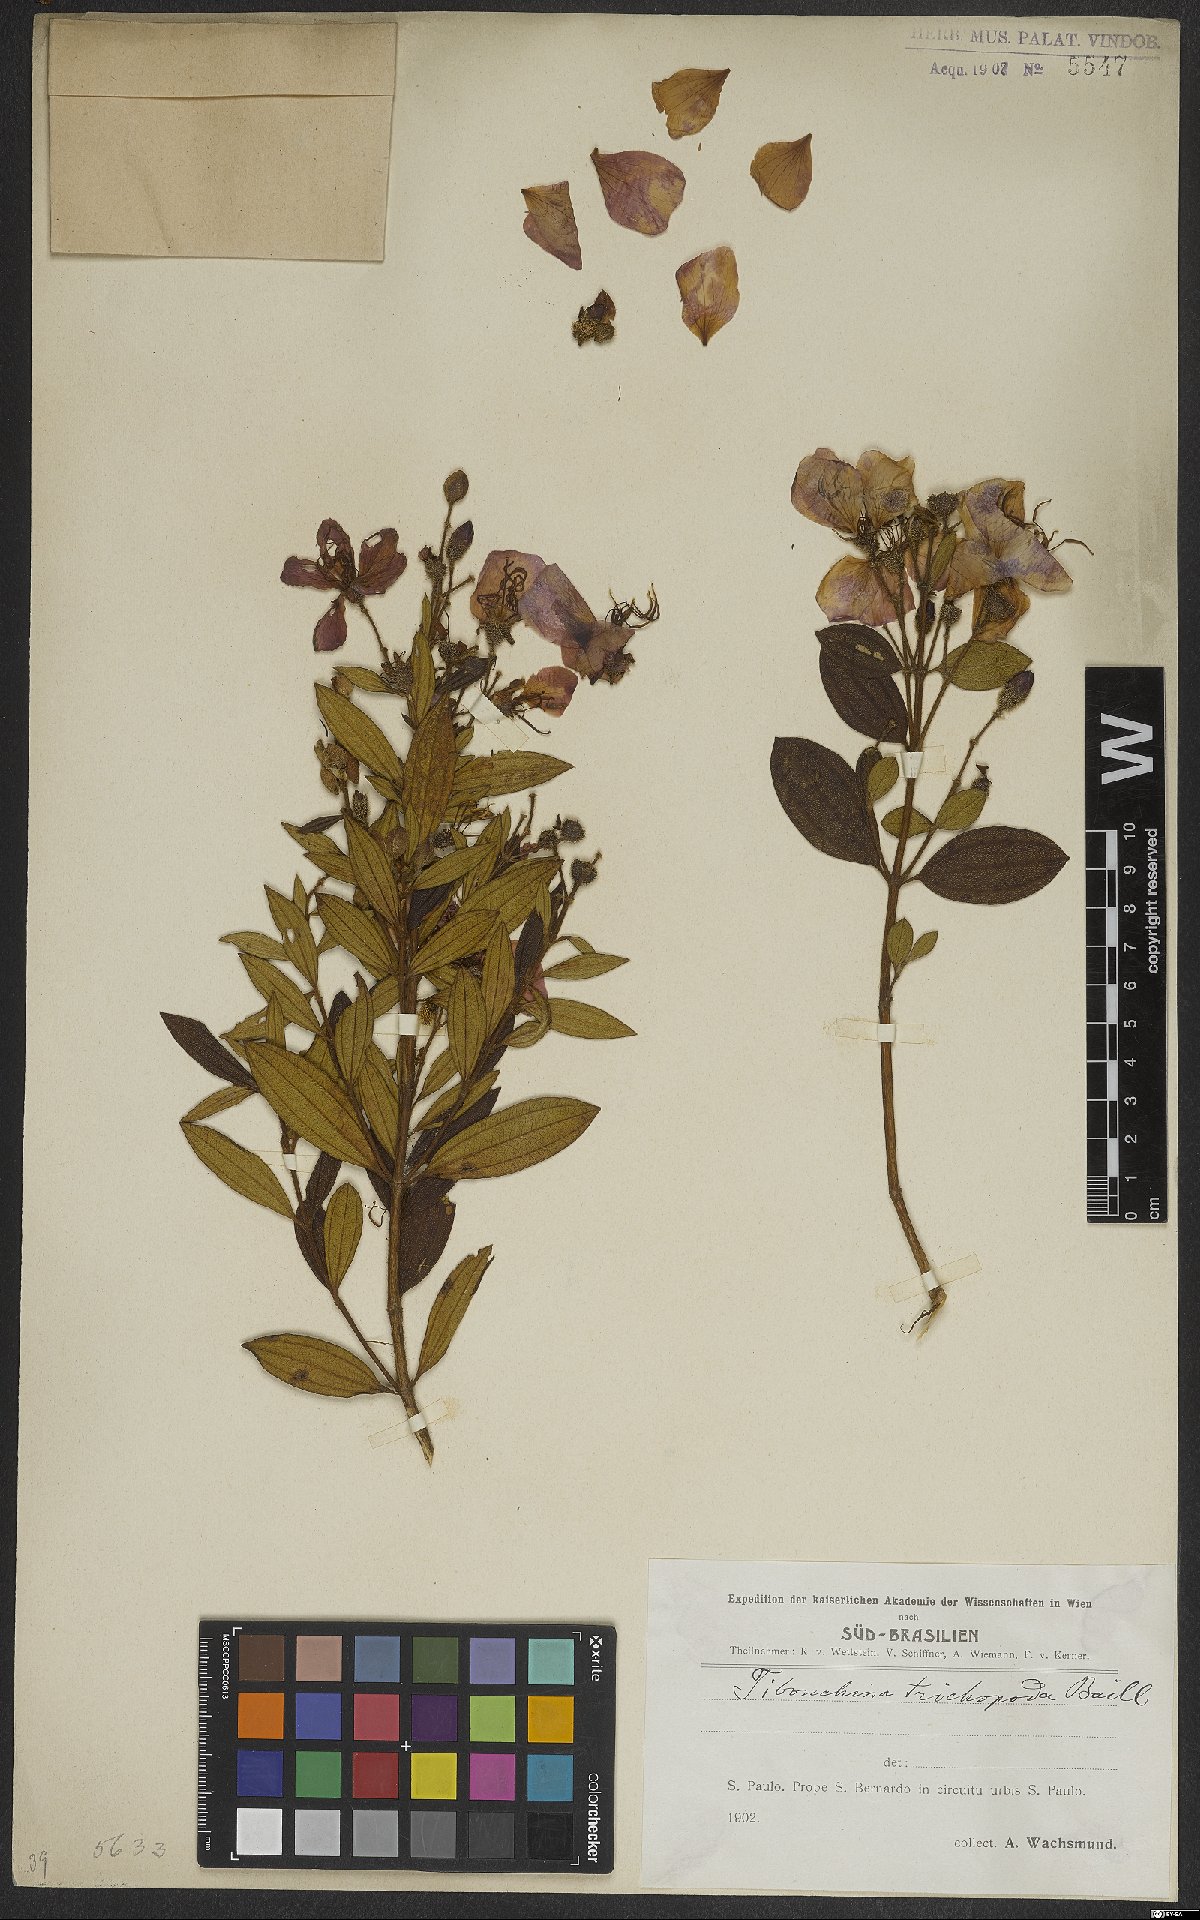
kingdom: Plantae
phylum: Tracheophyta
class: Magnoliopsida
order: Myrtales
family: Melastomataceae
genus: Pleroma
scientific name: Pleroma trichopodum
